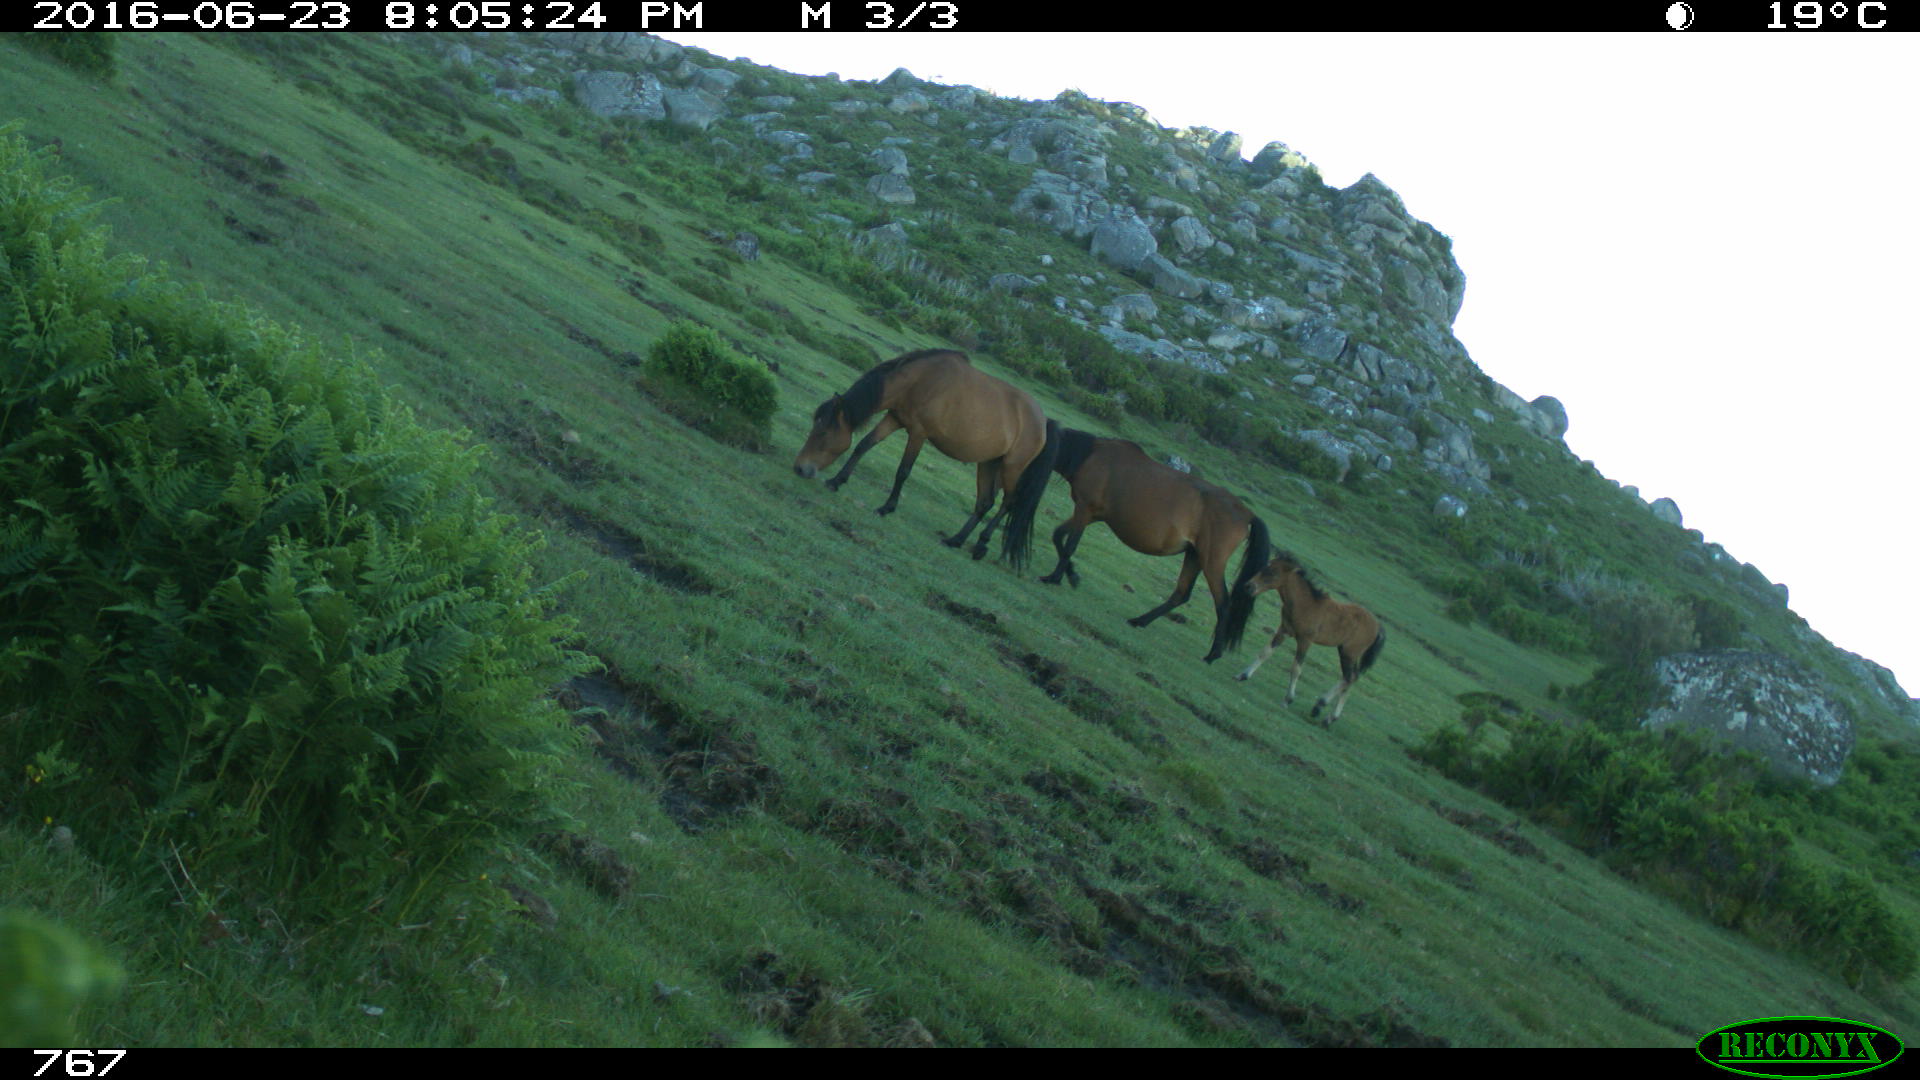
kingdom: Animalia
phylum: Chordata
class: Mammalia
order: Perissodactyla
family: Equidae
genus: Equus
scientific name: Equus caballus
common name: Horse
